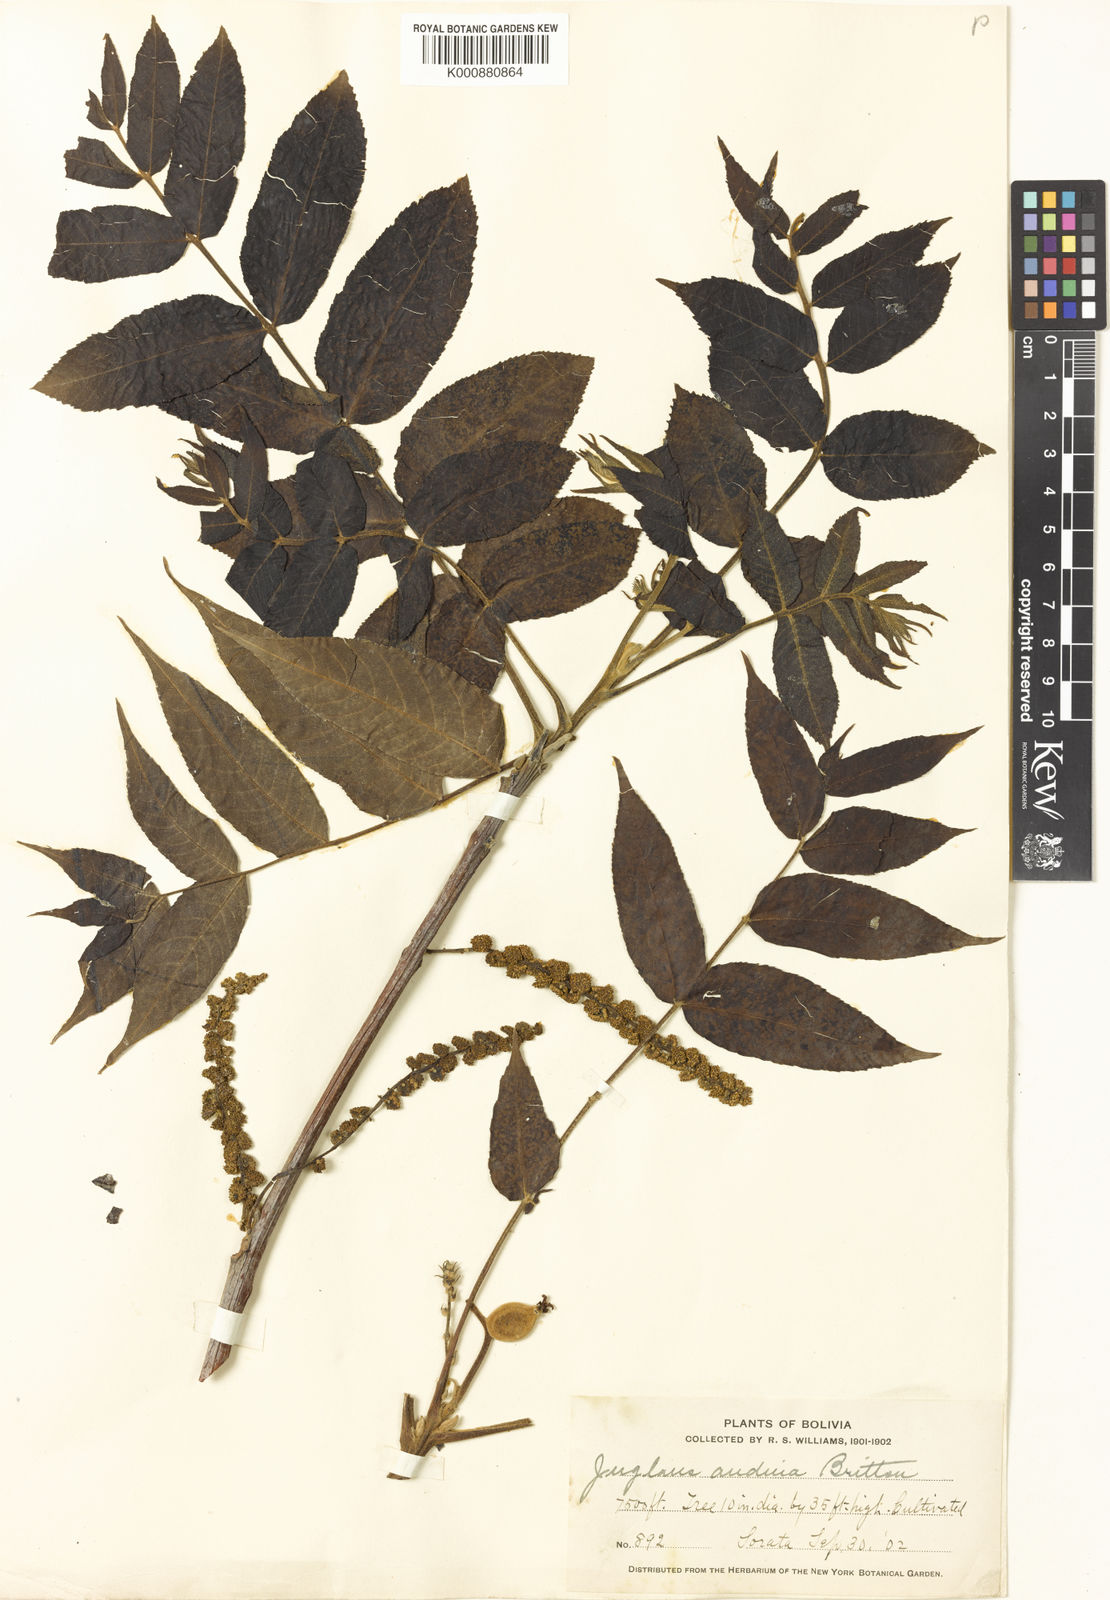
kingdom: Plantae
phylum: Tracheophyta
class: Magnoliopsida
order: Fagales
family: Juglandaceae
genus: Juglans
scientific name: Juglans
